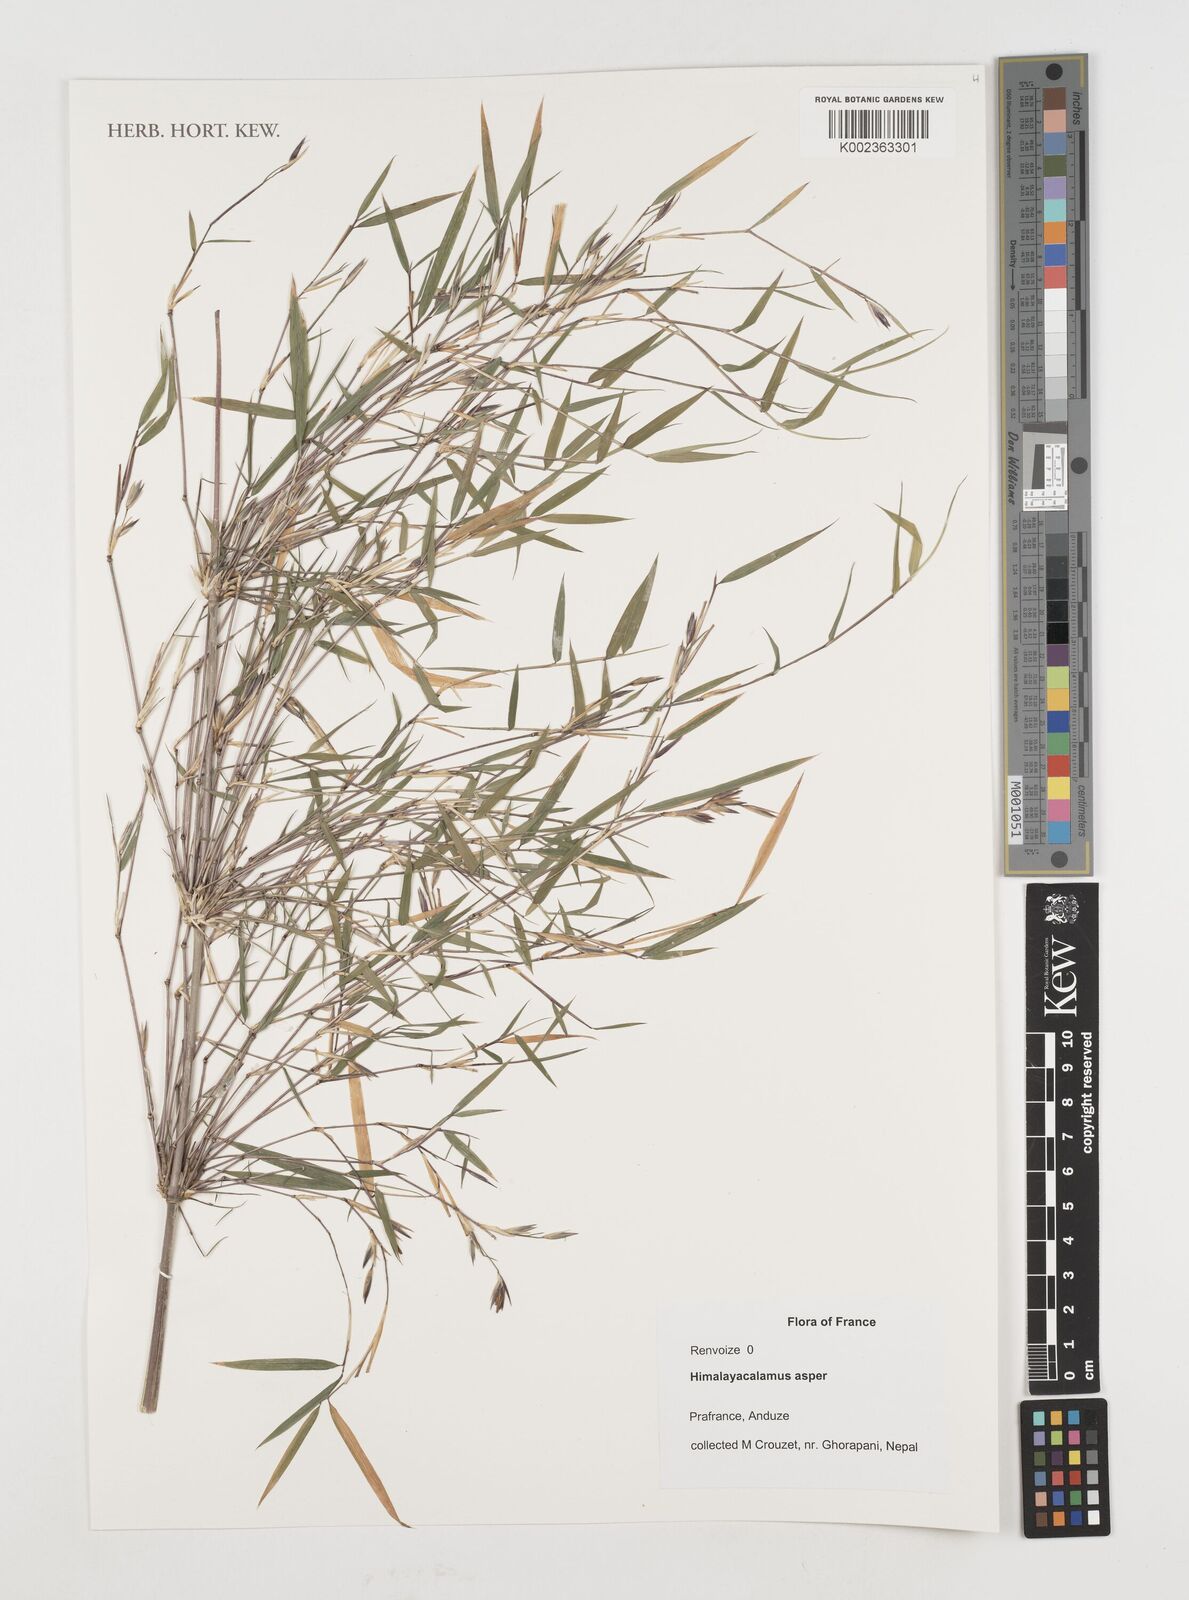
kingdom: Plantae
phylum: Tracheophyta
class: Liliopsida
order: Poales
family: Poaceae
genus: Himalayacalamus
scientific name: Himalayacalamus asper
